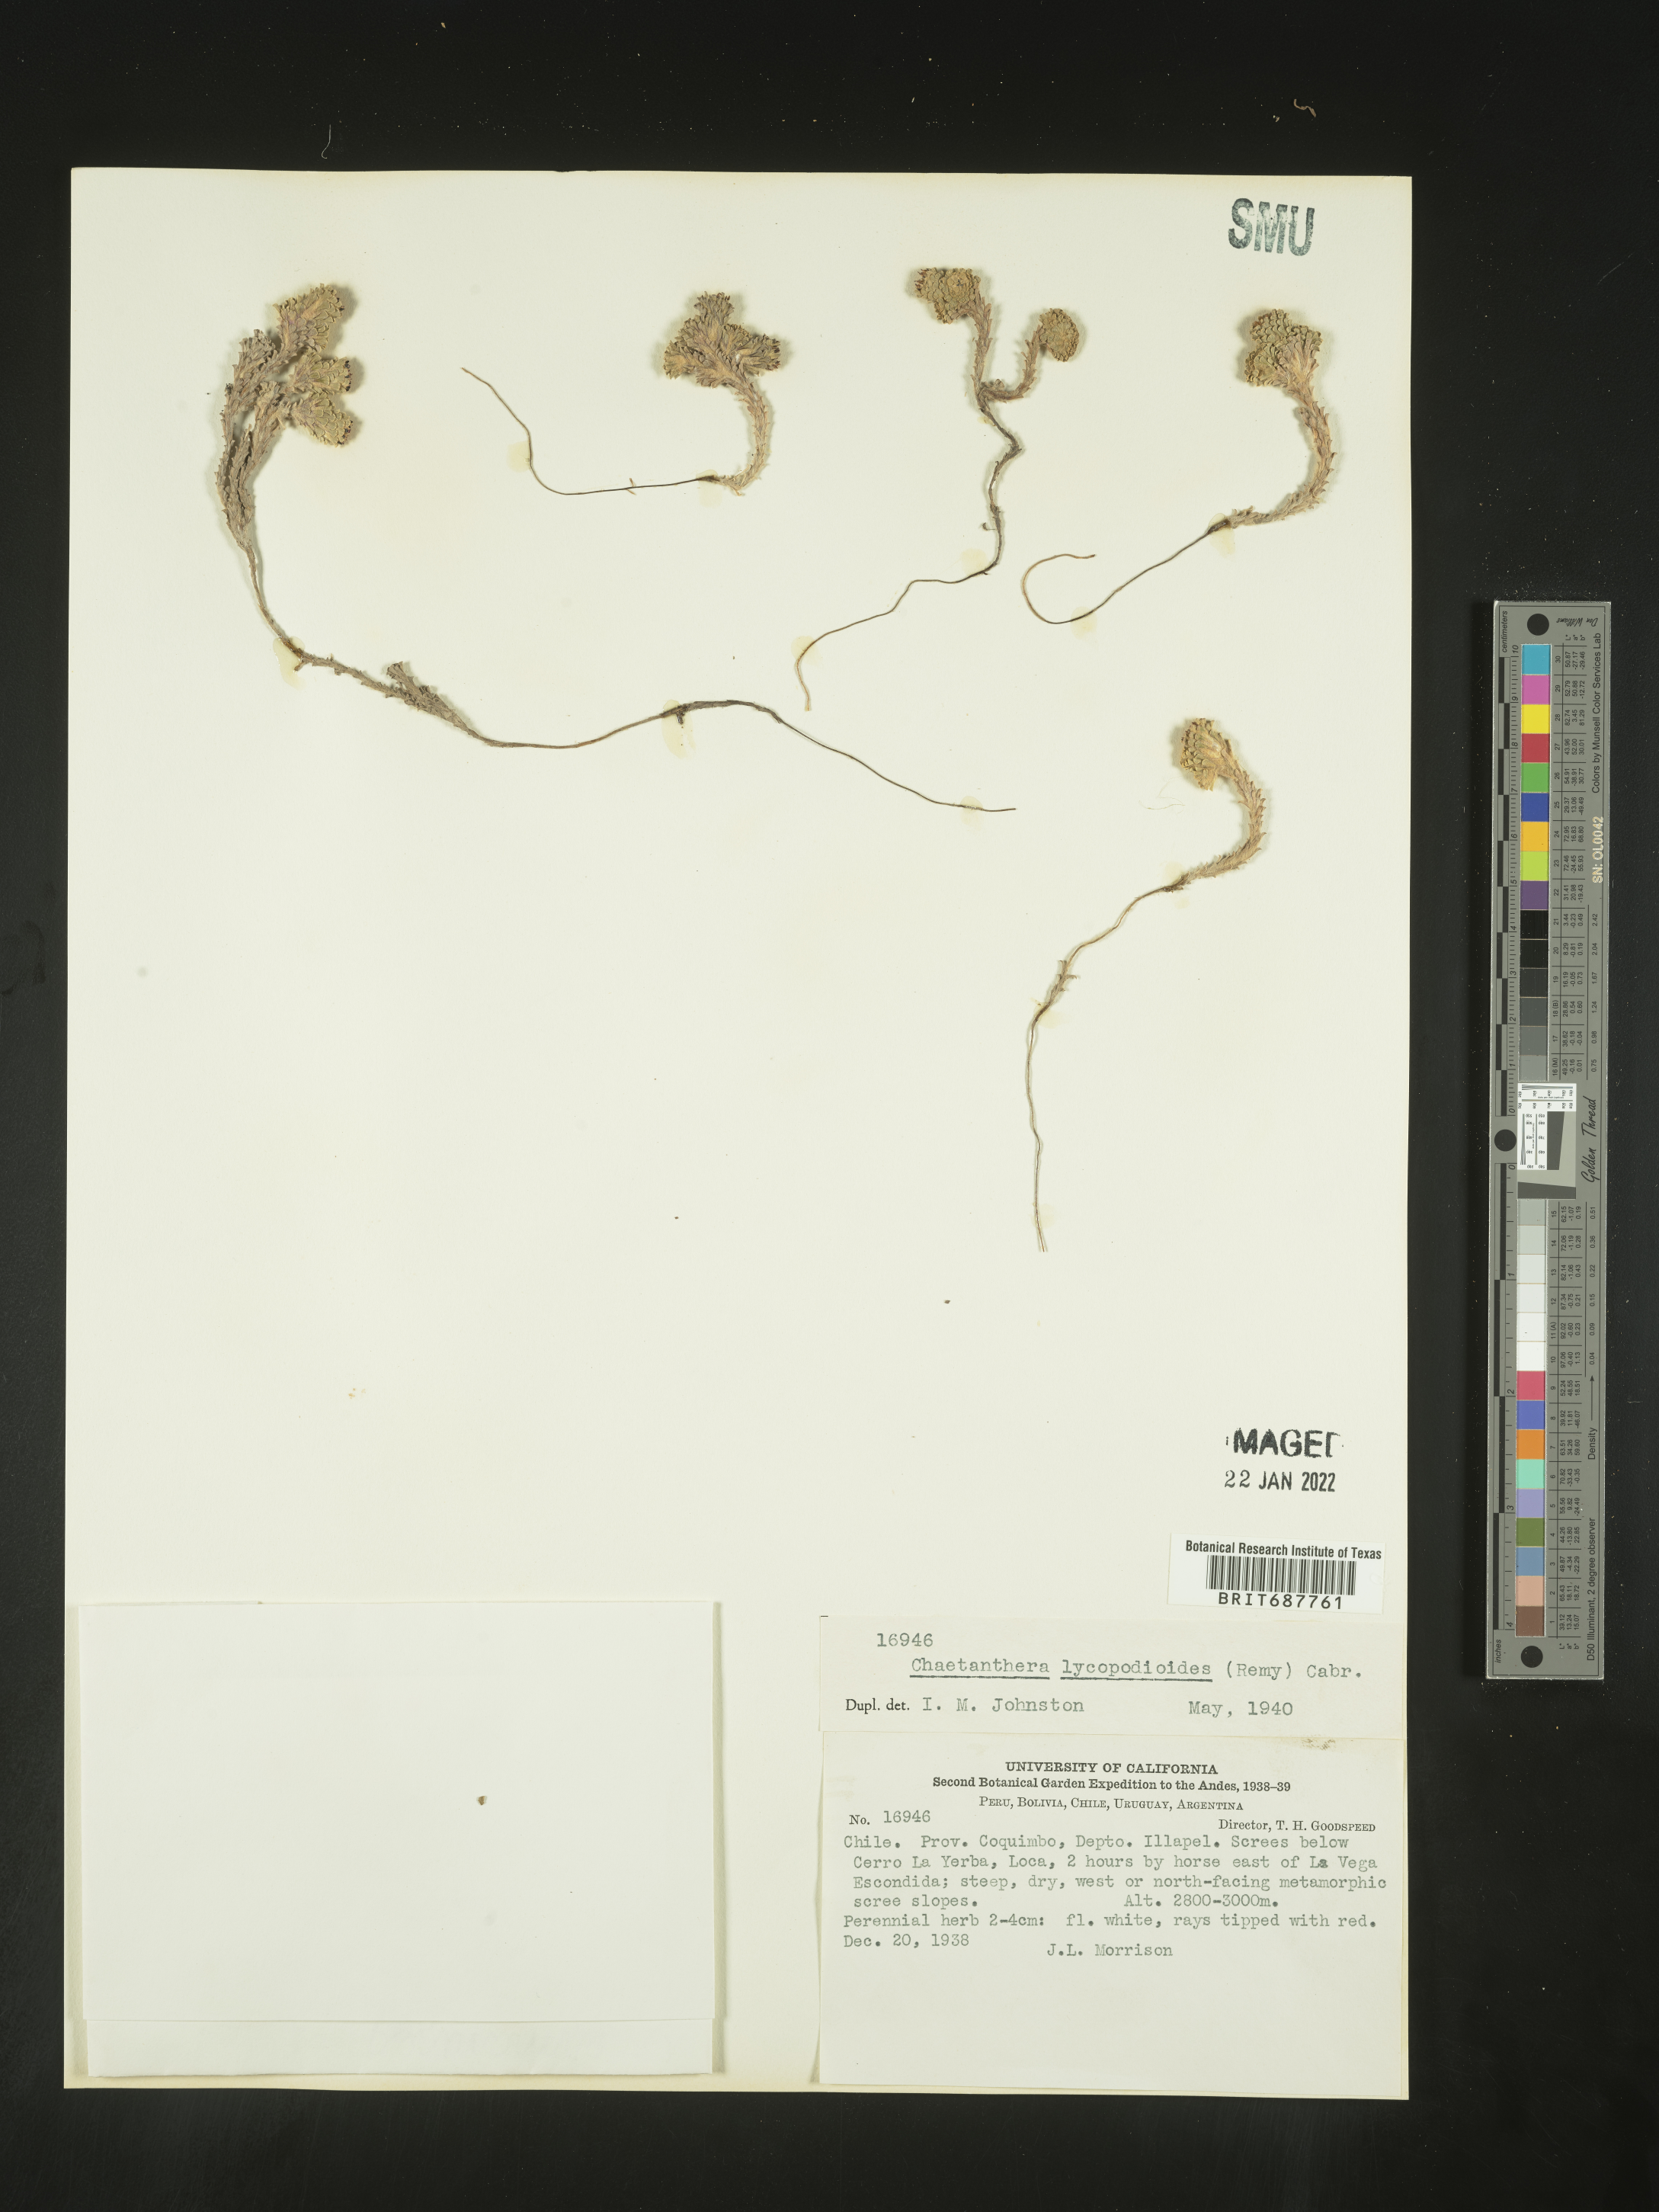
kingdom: Plantae
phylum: Tracheophyta
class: Magnoliopsida
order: Asterales
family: Asteraceae
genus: Chaetanthera
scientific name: Chaetanthera
